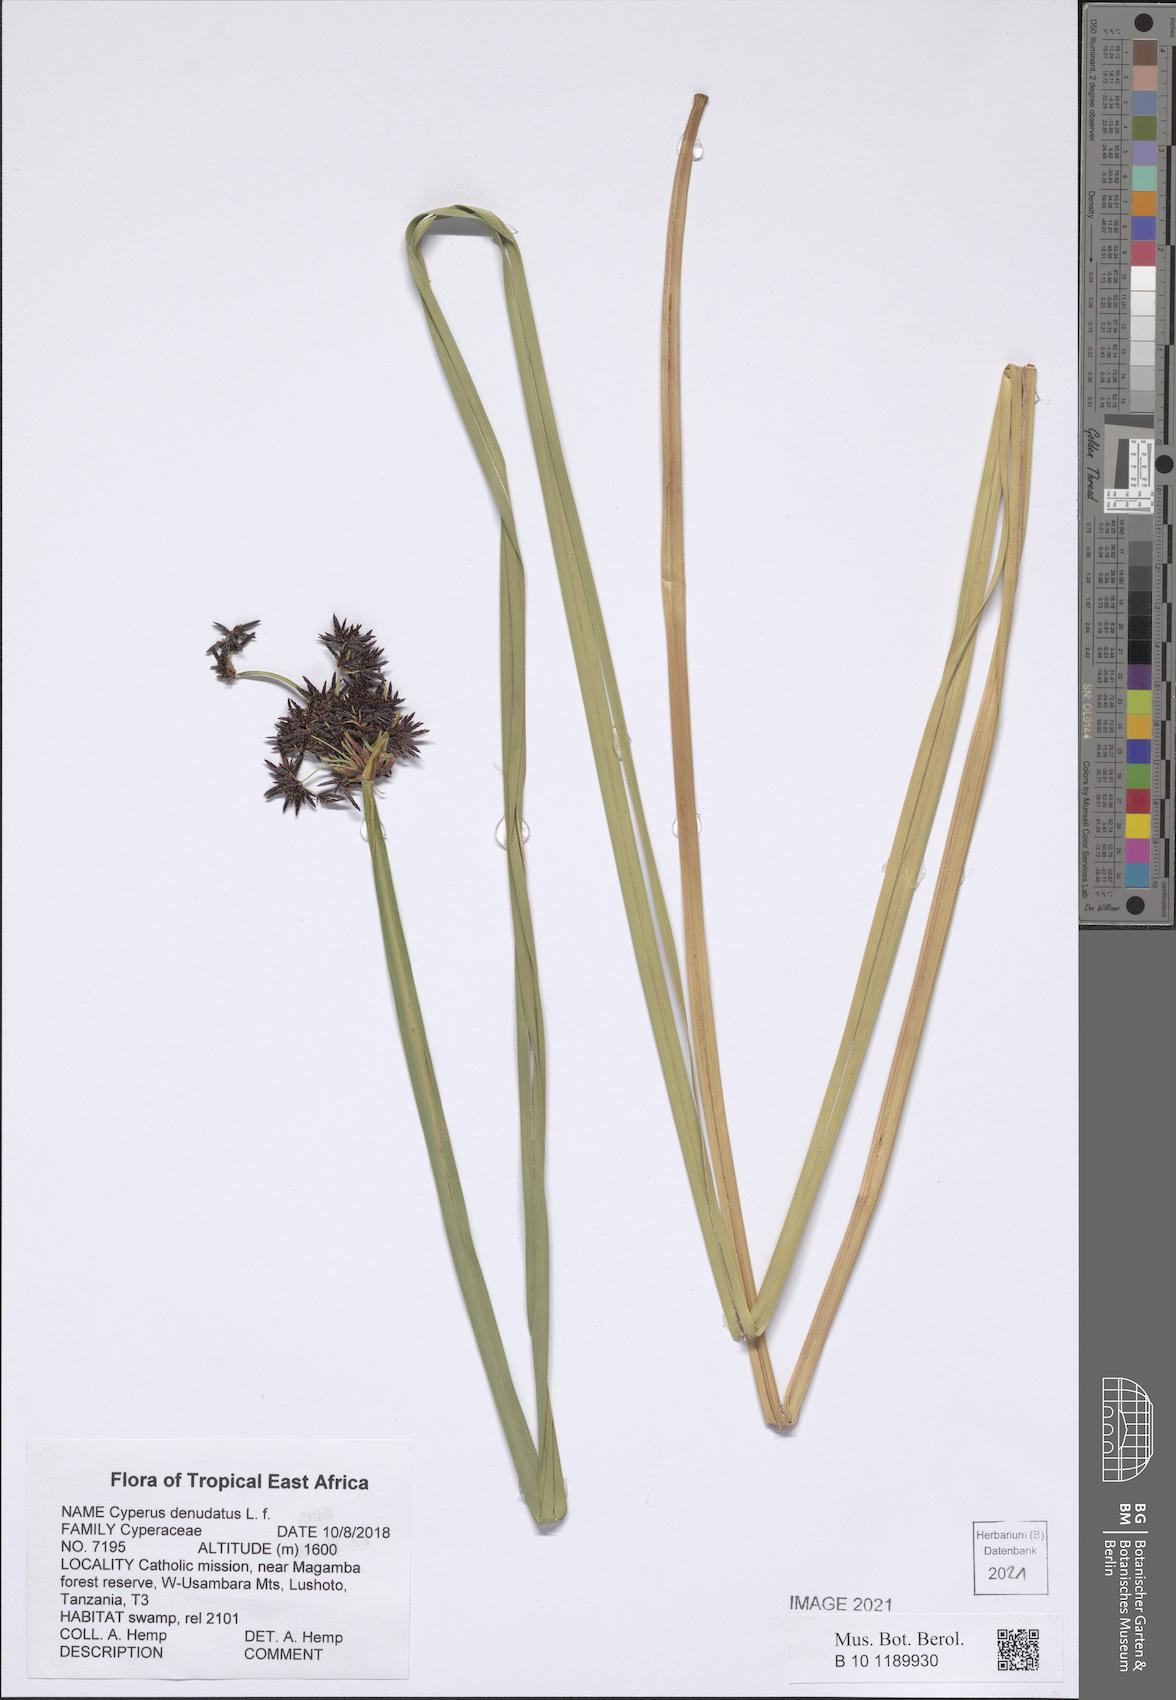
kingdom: Plantae
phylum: Tracheophyta
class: Liliopsida
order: Poales
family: Cyperaceae
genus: Cyperus
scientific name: Cyperus denudatus
